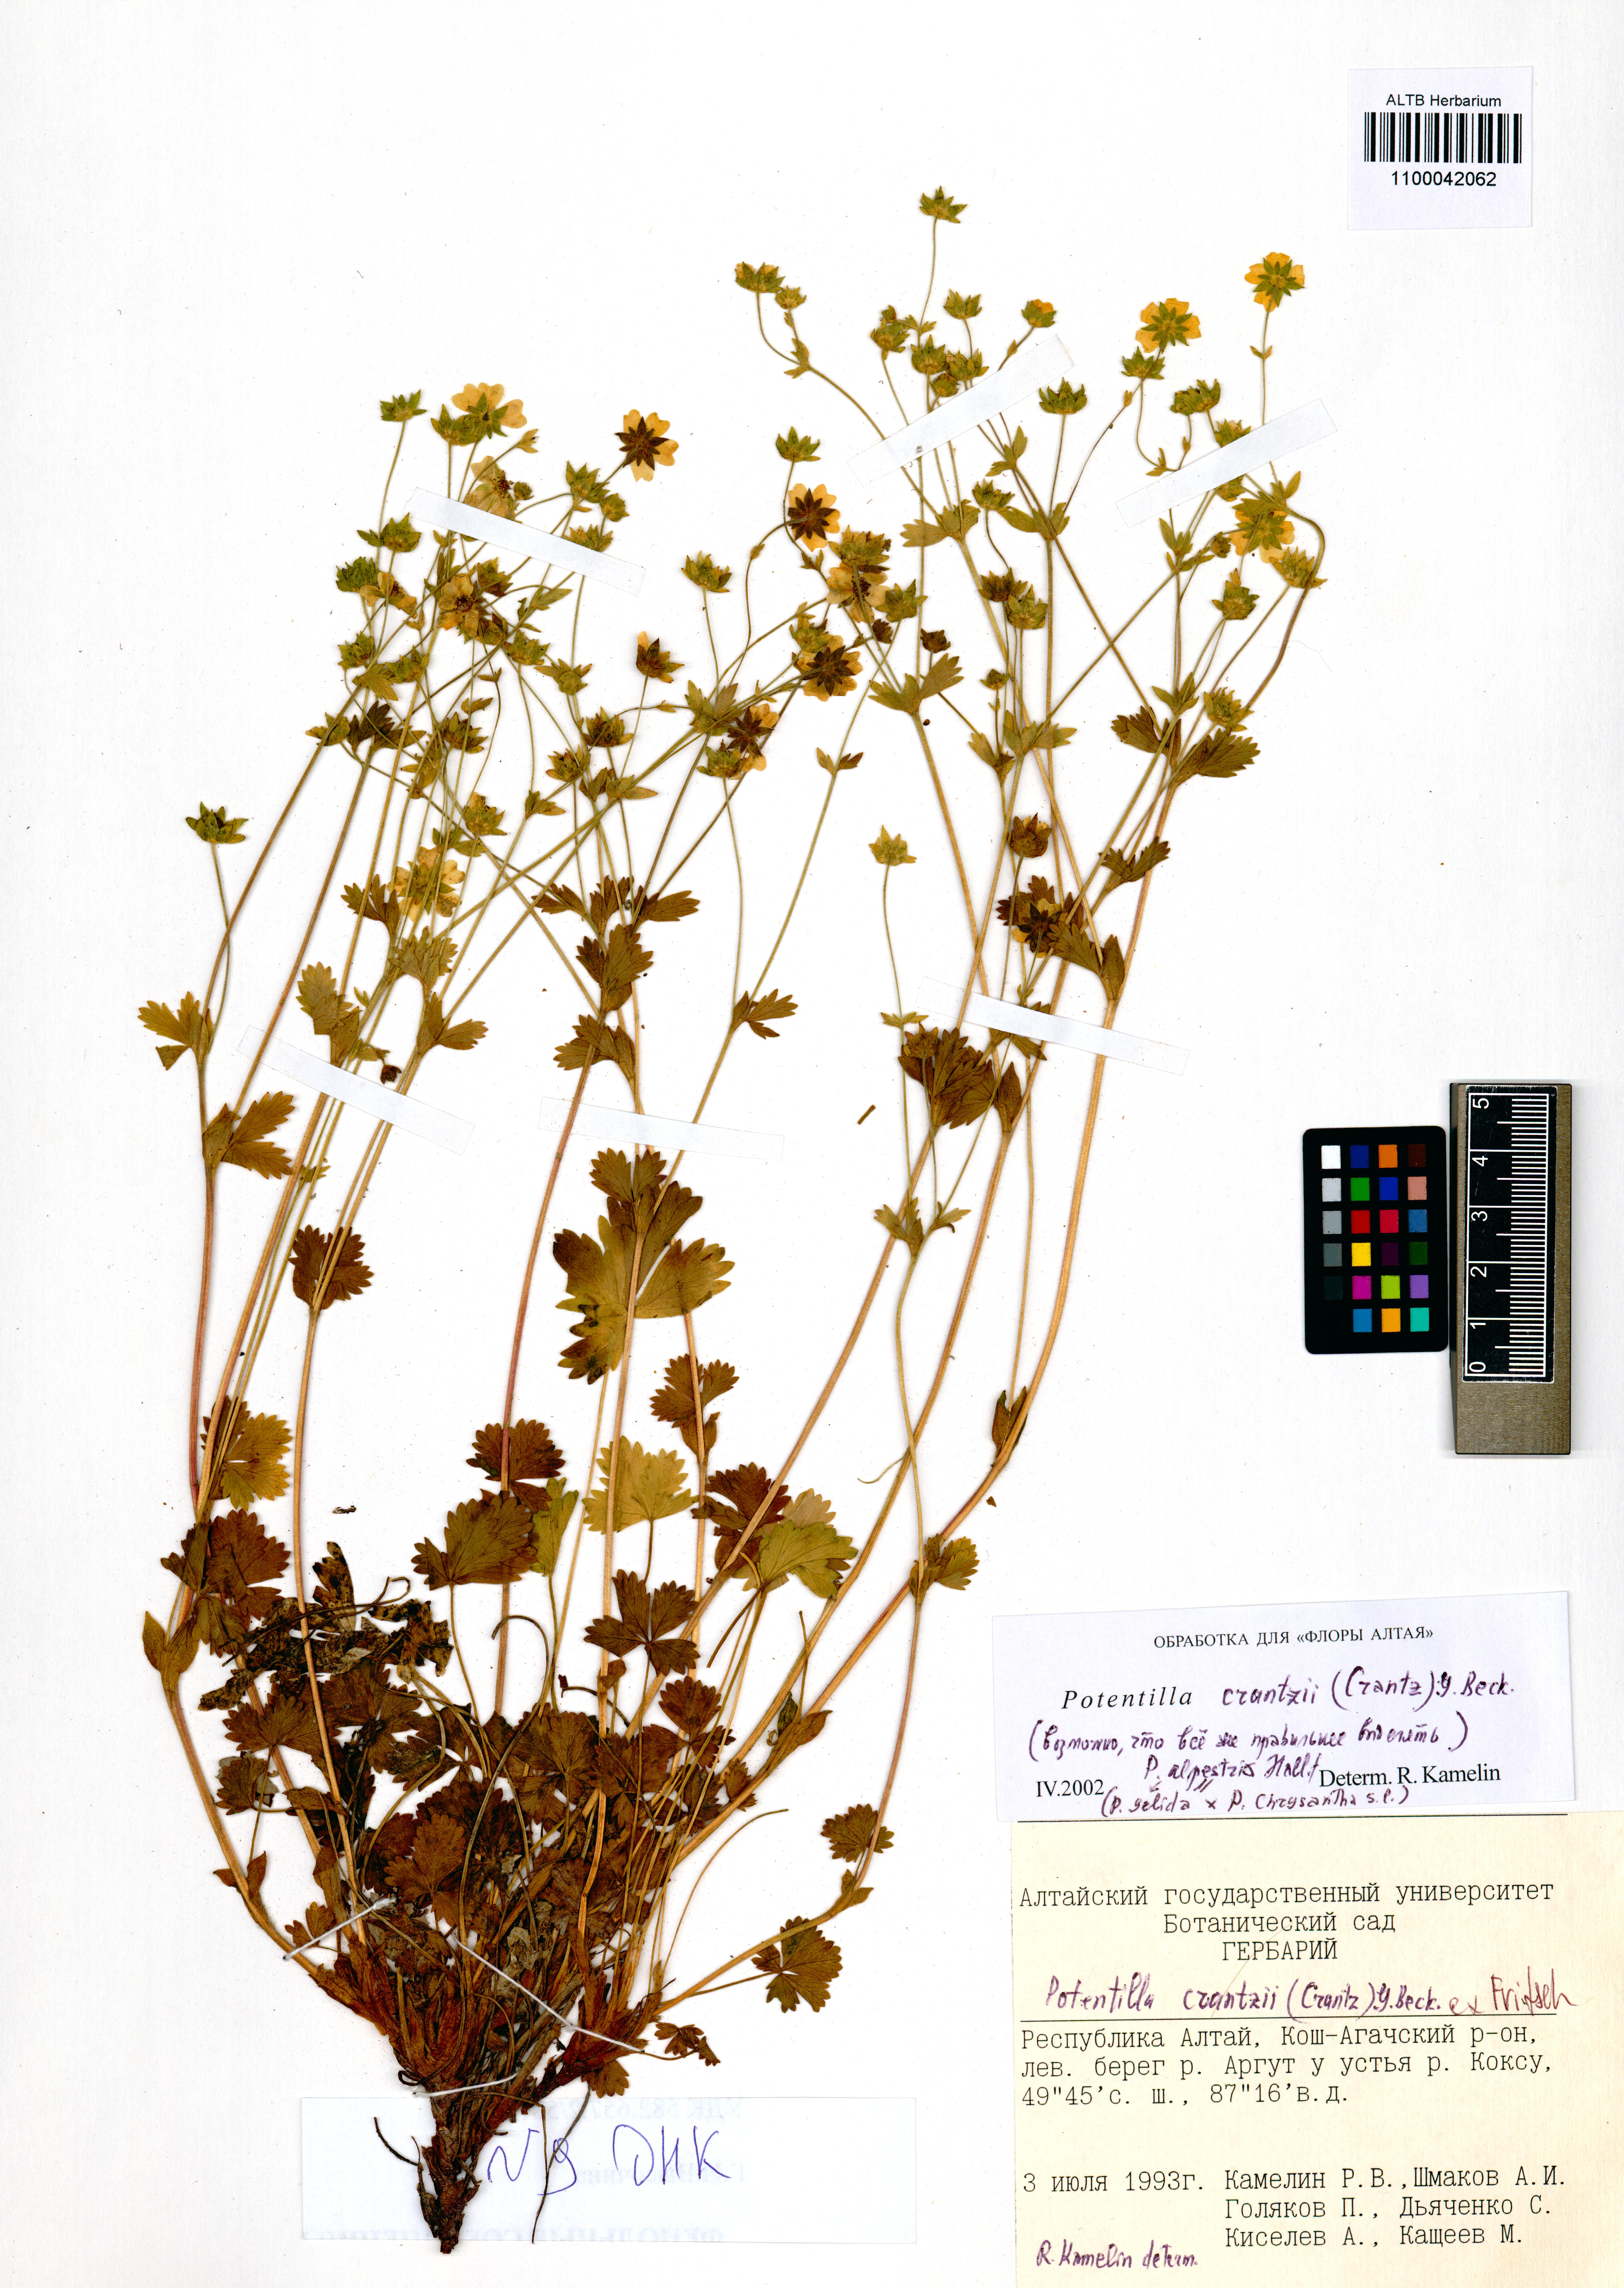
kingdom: Plantae
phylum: Tracheophyta
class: Magnoliopsida
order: Rosales
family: Rosaceae
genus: Potentilla
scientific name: Potentilla crantzii
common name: Alpine cinquefoil
